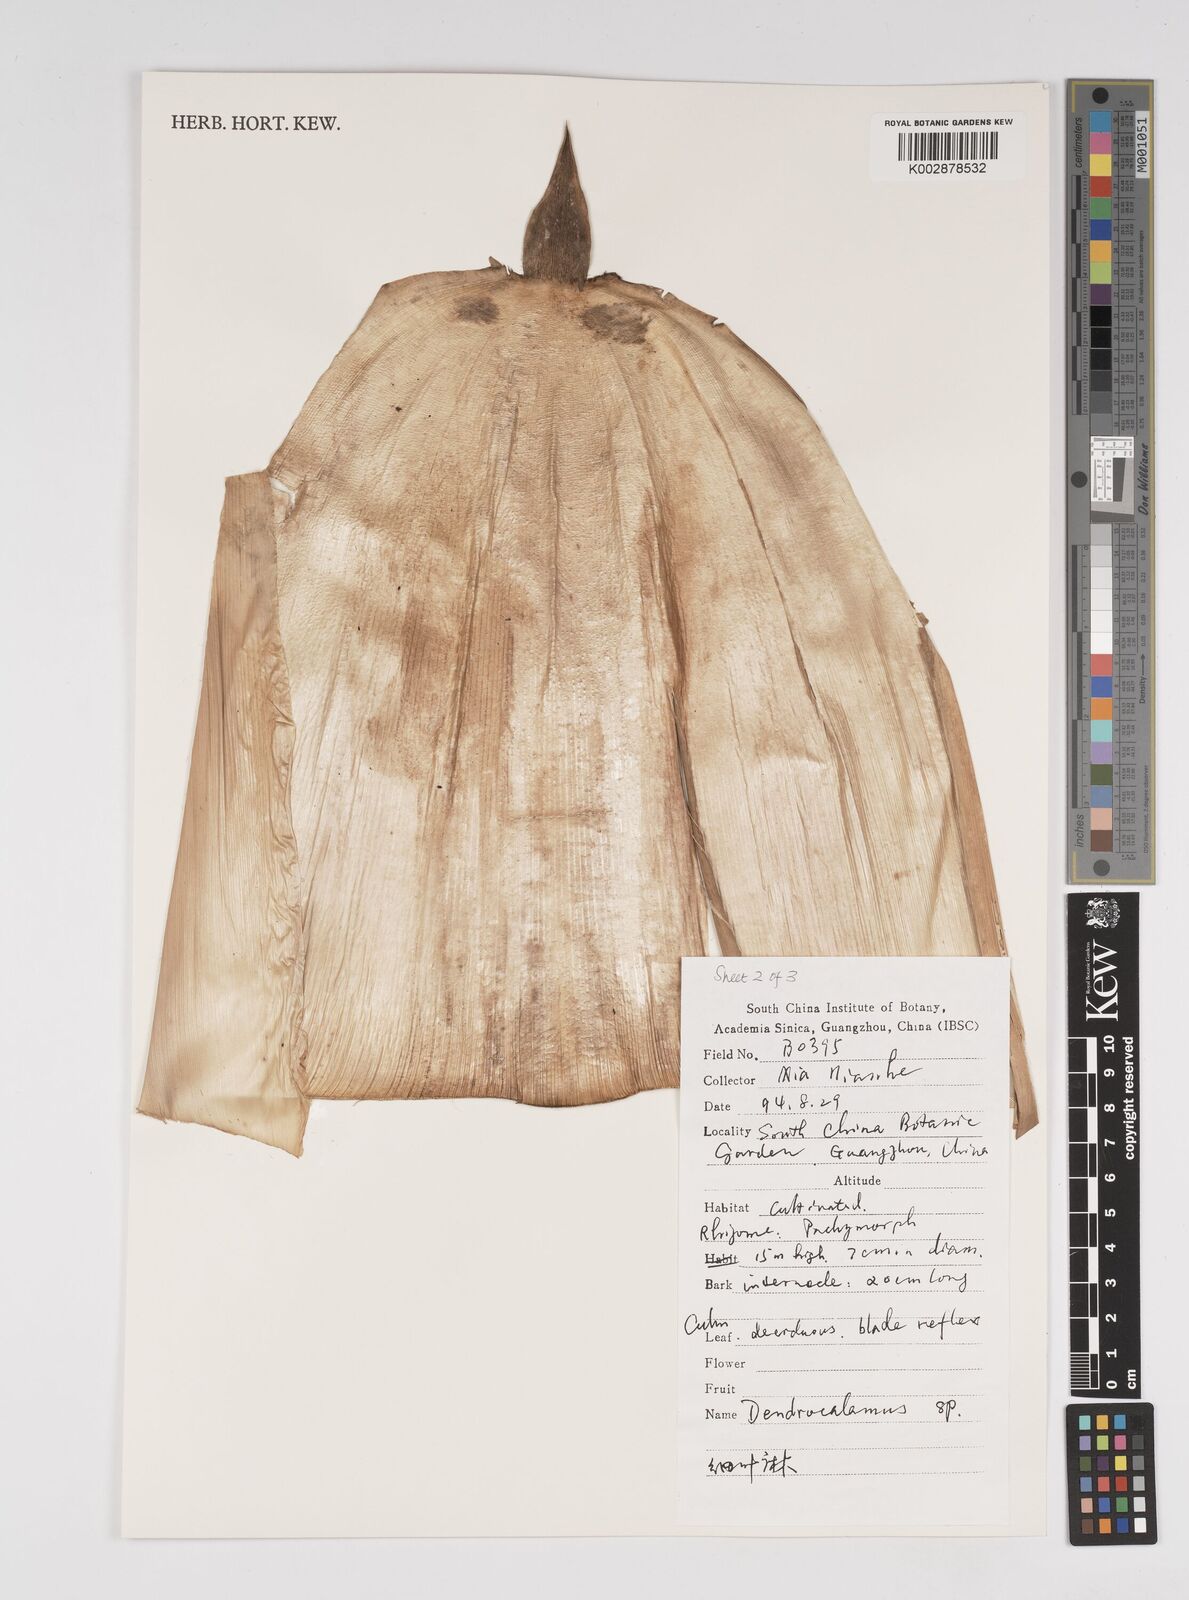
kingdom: Plantae
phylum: Tracheophyta
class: Liliopsida
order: Poales
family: Poaceae
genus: Dendrocalamus
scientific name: Dendrocalamus
